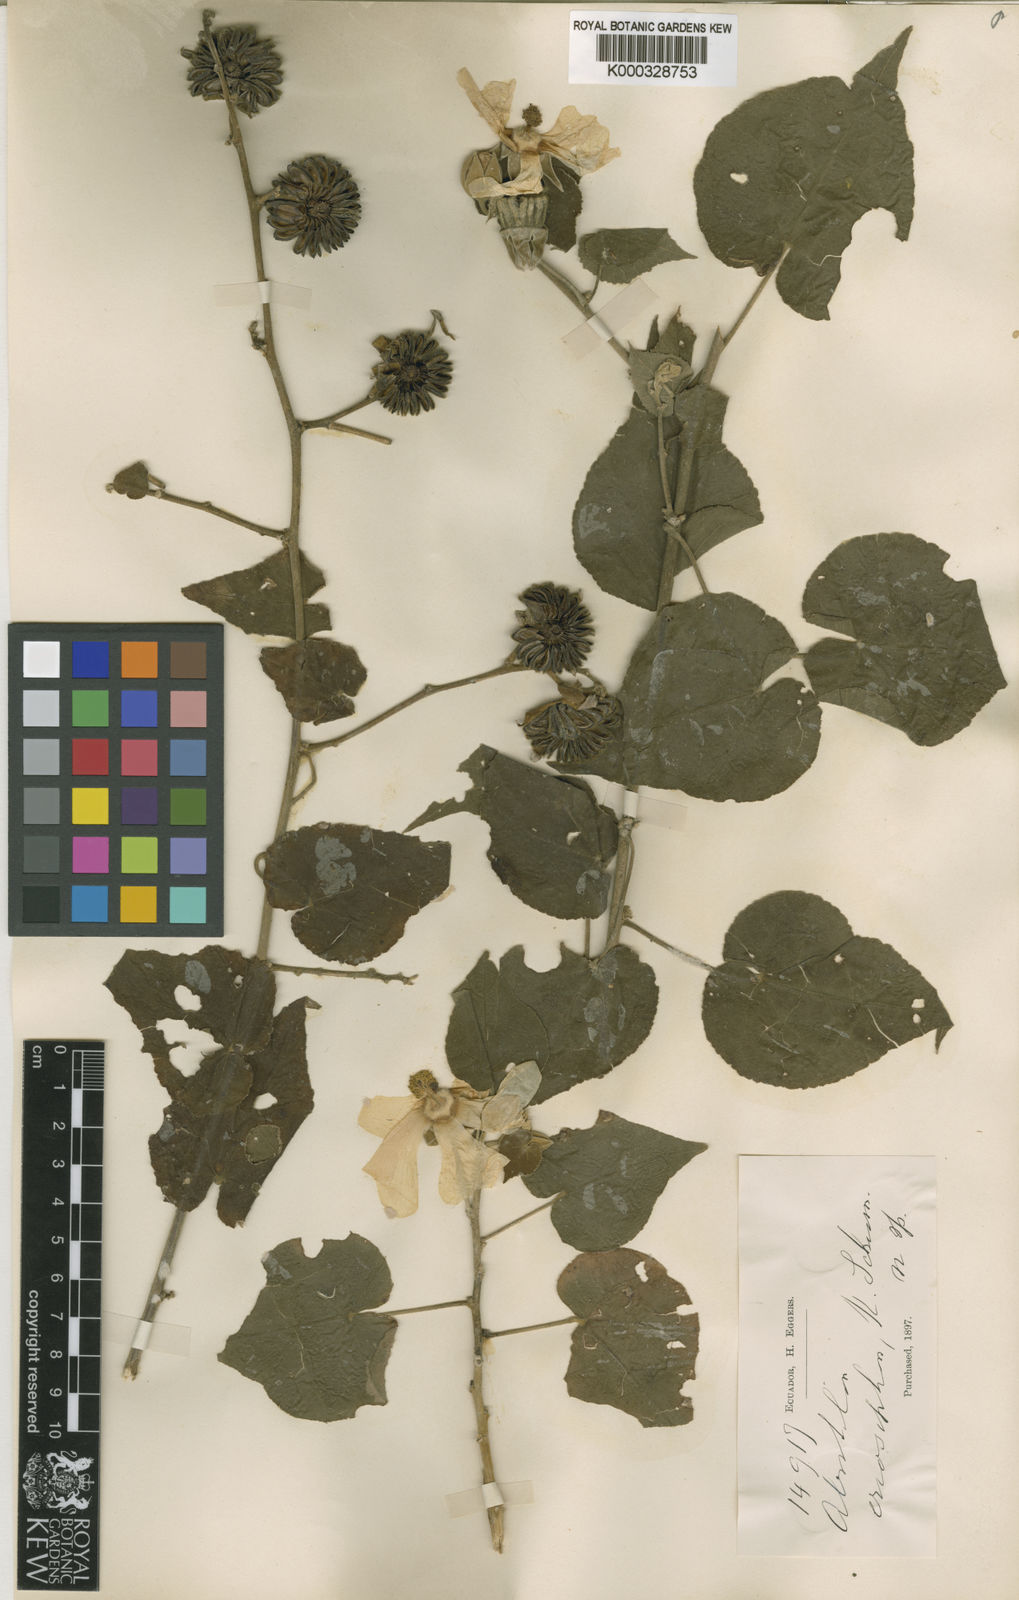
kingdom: Plantae
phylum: Tracheophyta
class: Magnoliopsida
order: Malvales
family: Malvaceae
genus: Abutilon
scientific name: Abutilon
